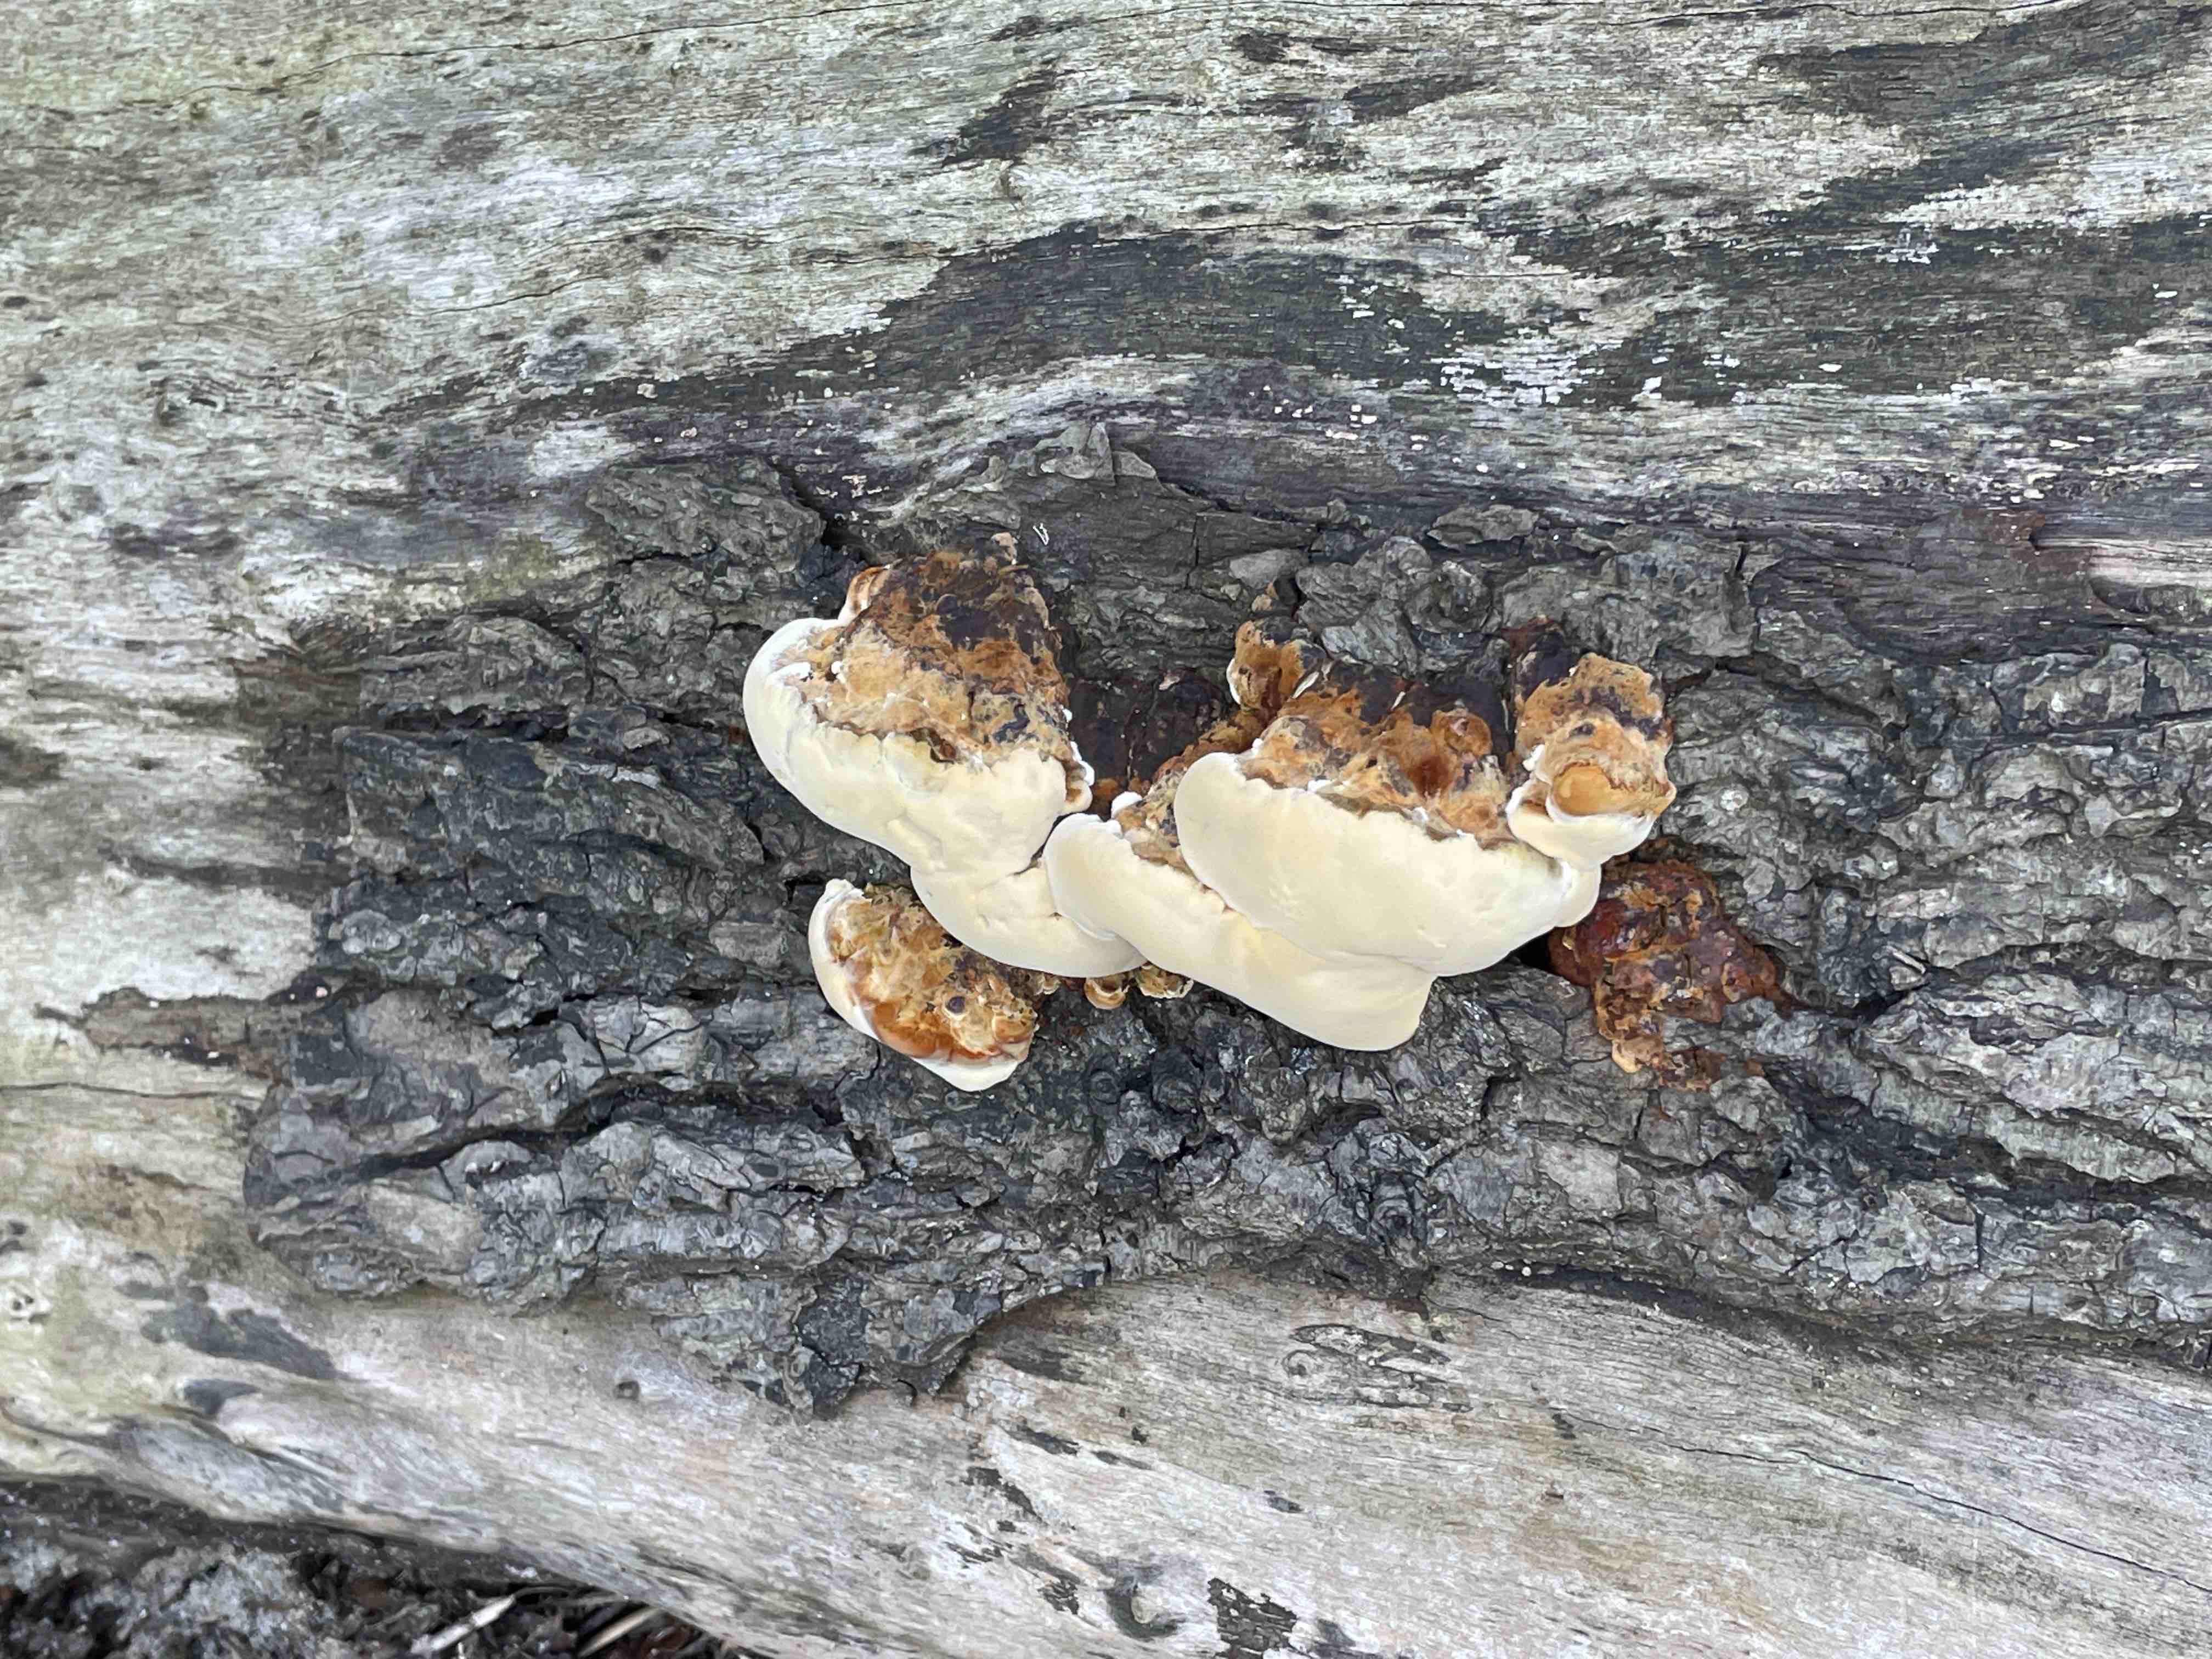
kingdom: Fungi
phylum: Basidiomycota
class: Agaricomycetes
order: Hymenochaetales
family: Hymenochaetaceae
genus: Xanthoporia
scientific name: Xanthoporia radiata
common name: elle-spejlporesvamp
